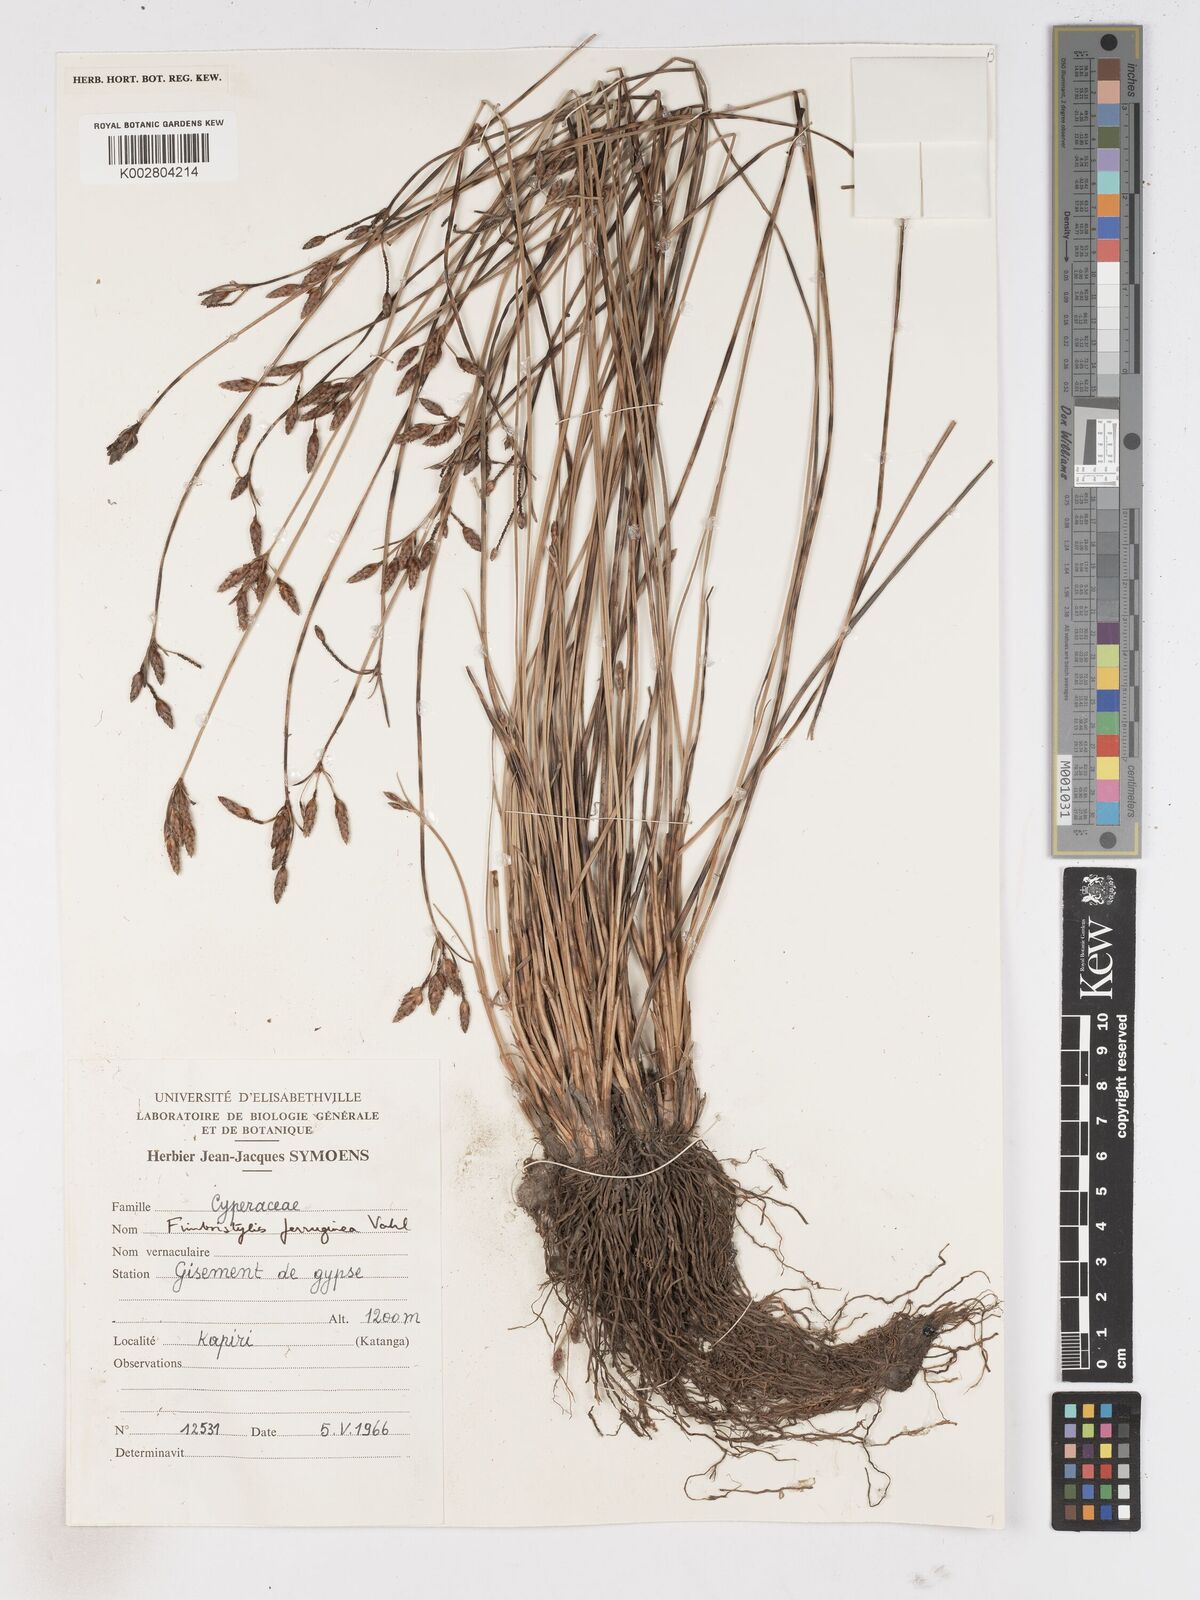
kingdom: Plantae
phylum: Tracheophyta
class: Liliopsida
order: Poales
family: Cyperaceae
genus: Fimbristylis
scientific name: Fimbristylis ferruginea
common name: West indian fimbry
